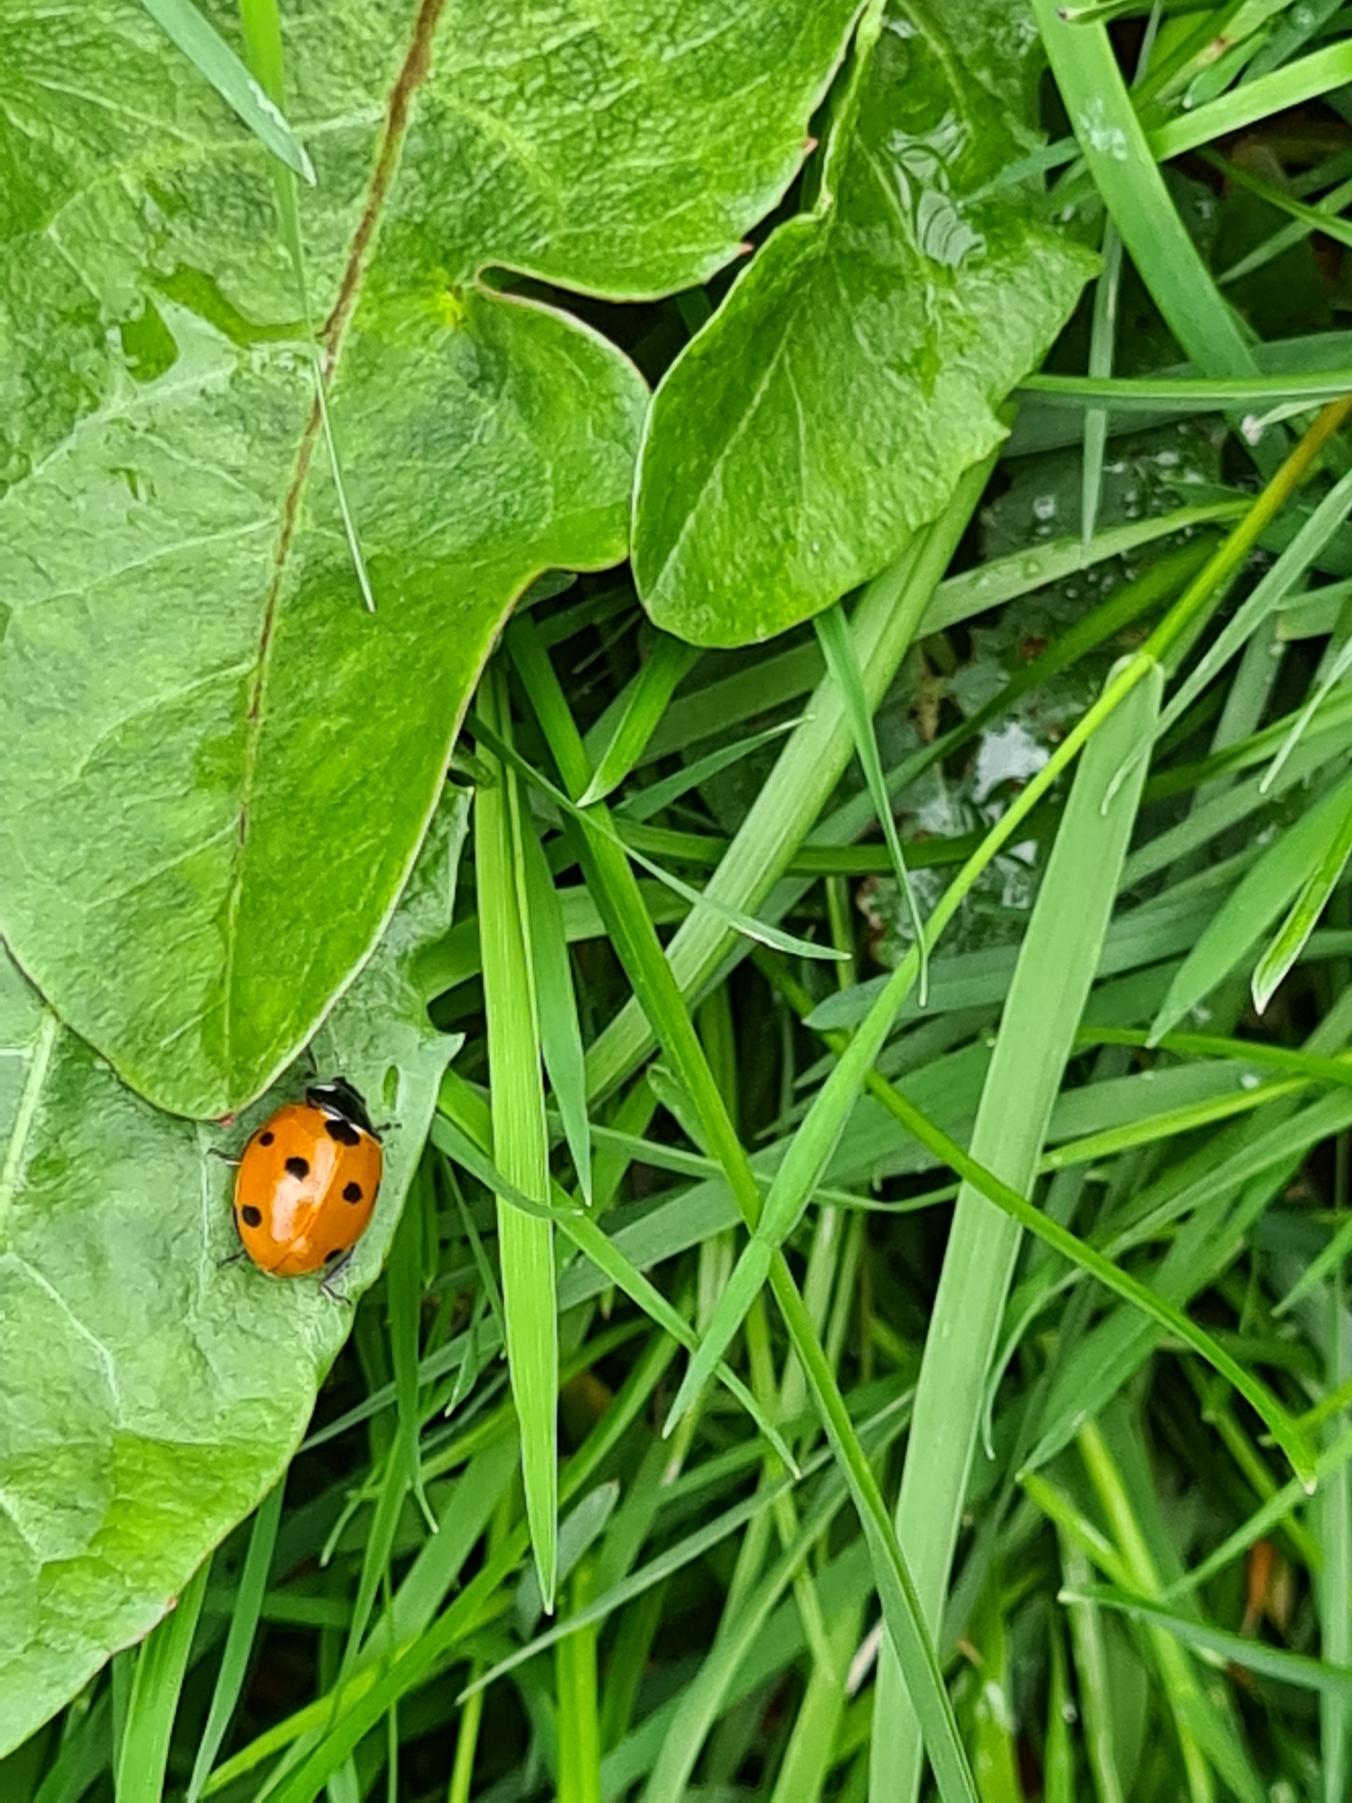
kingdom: Animalia
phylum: Arthropoda
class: Insecta
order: Coleoptera
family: Coccinellidae
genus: Coccinella
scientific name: Coccinella septempunctata
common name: Syvplettet mariehøne
